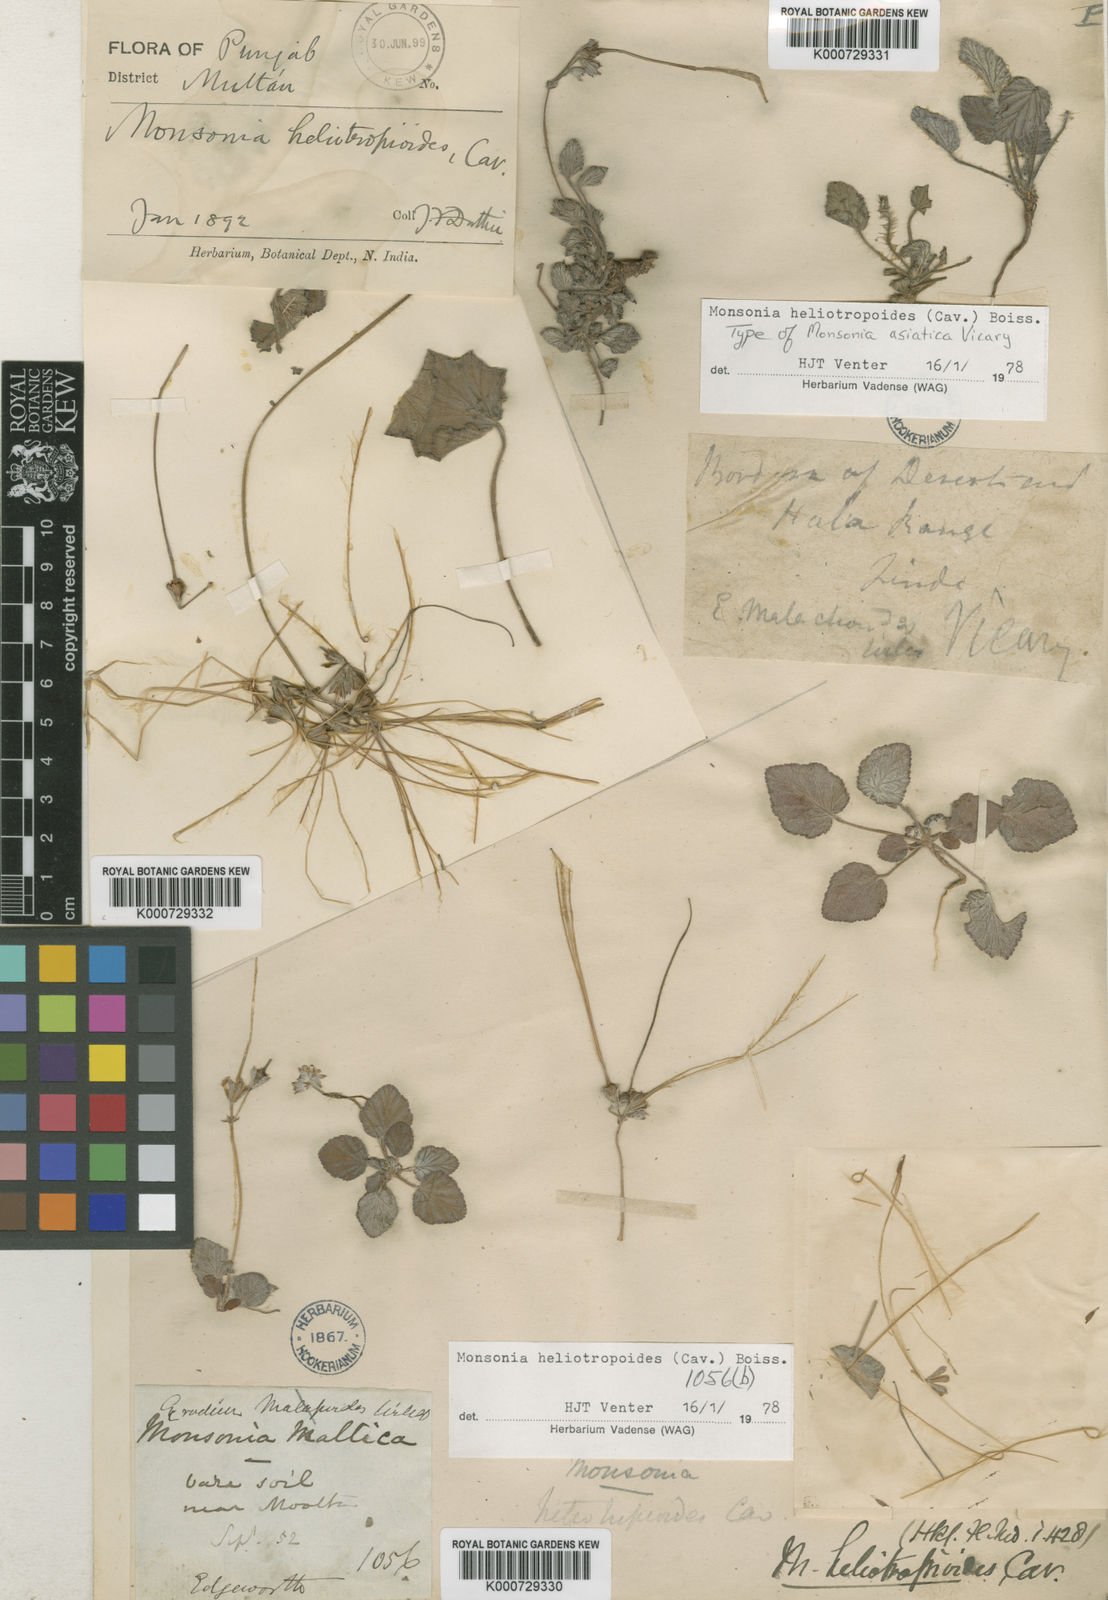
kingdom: Plantae
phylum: Tracheophyta
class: Magnoliopsida
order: Geraniales
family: Geraniaceae
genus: Monsonia
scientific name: Monsonia
